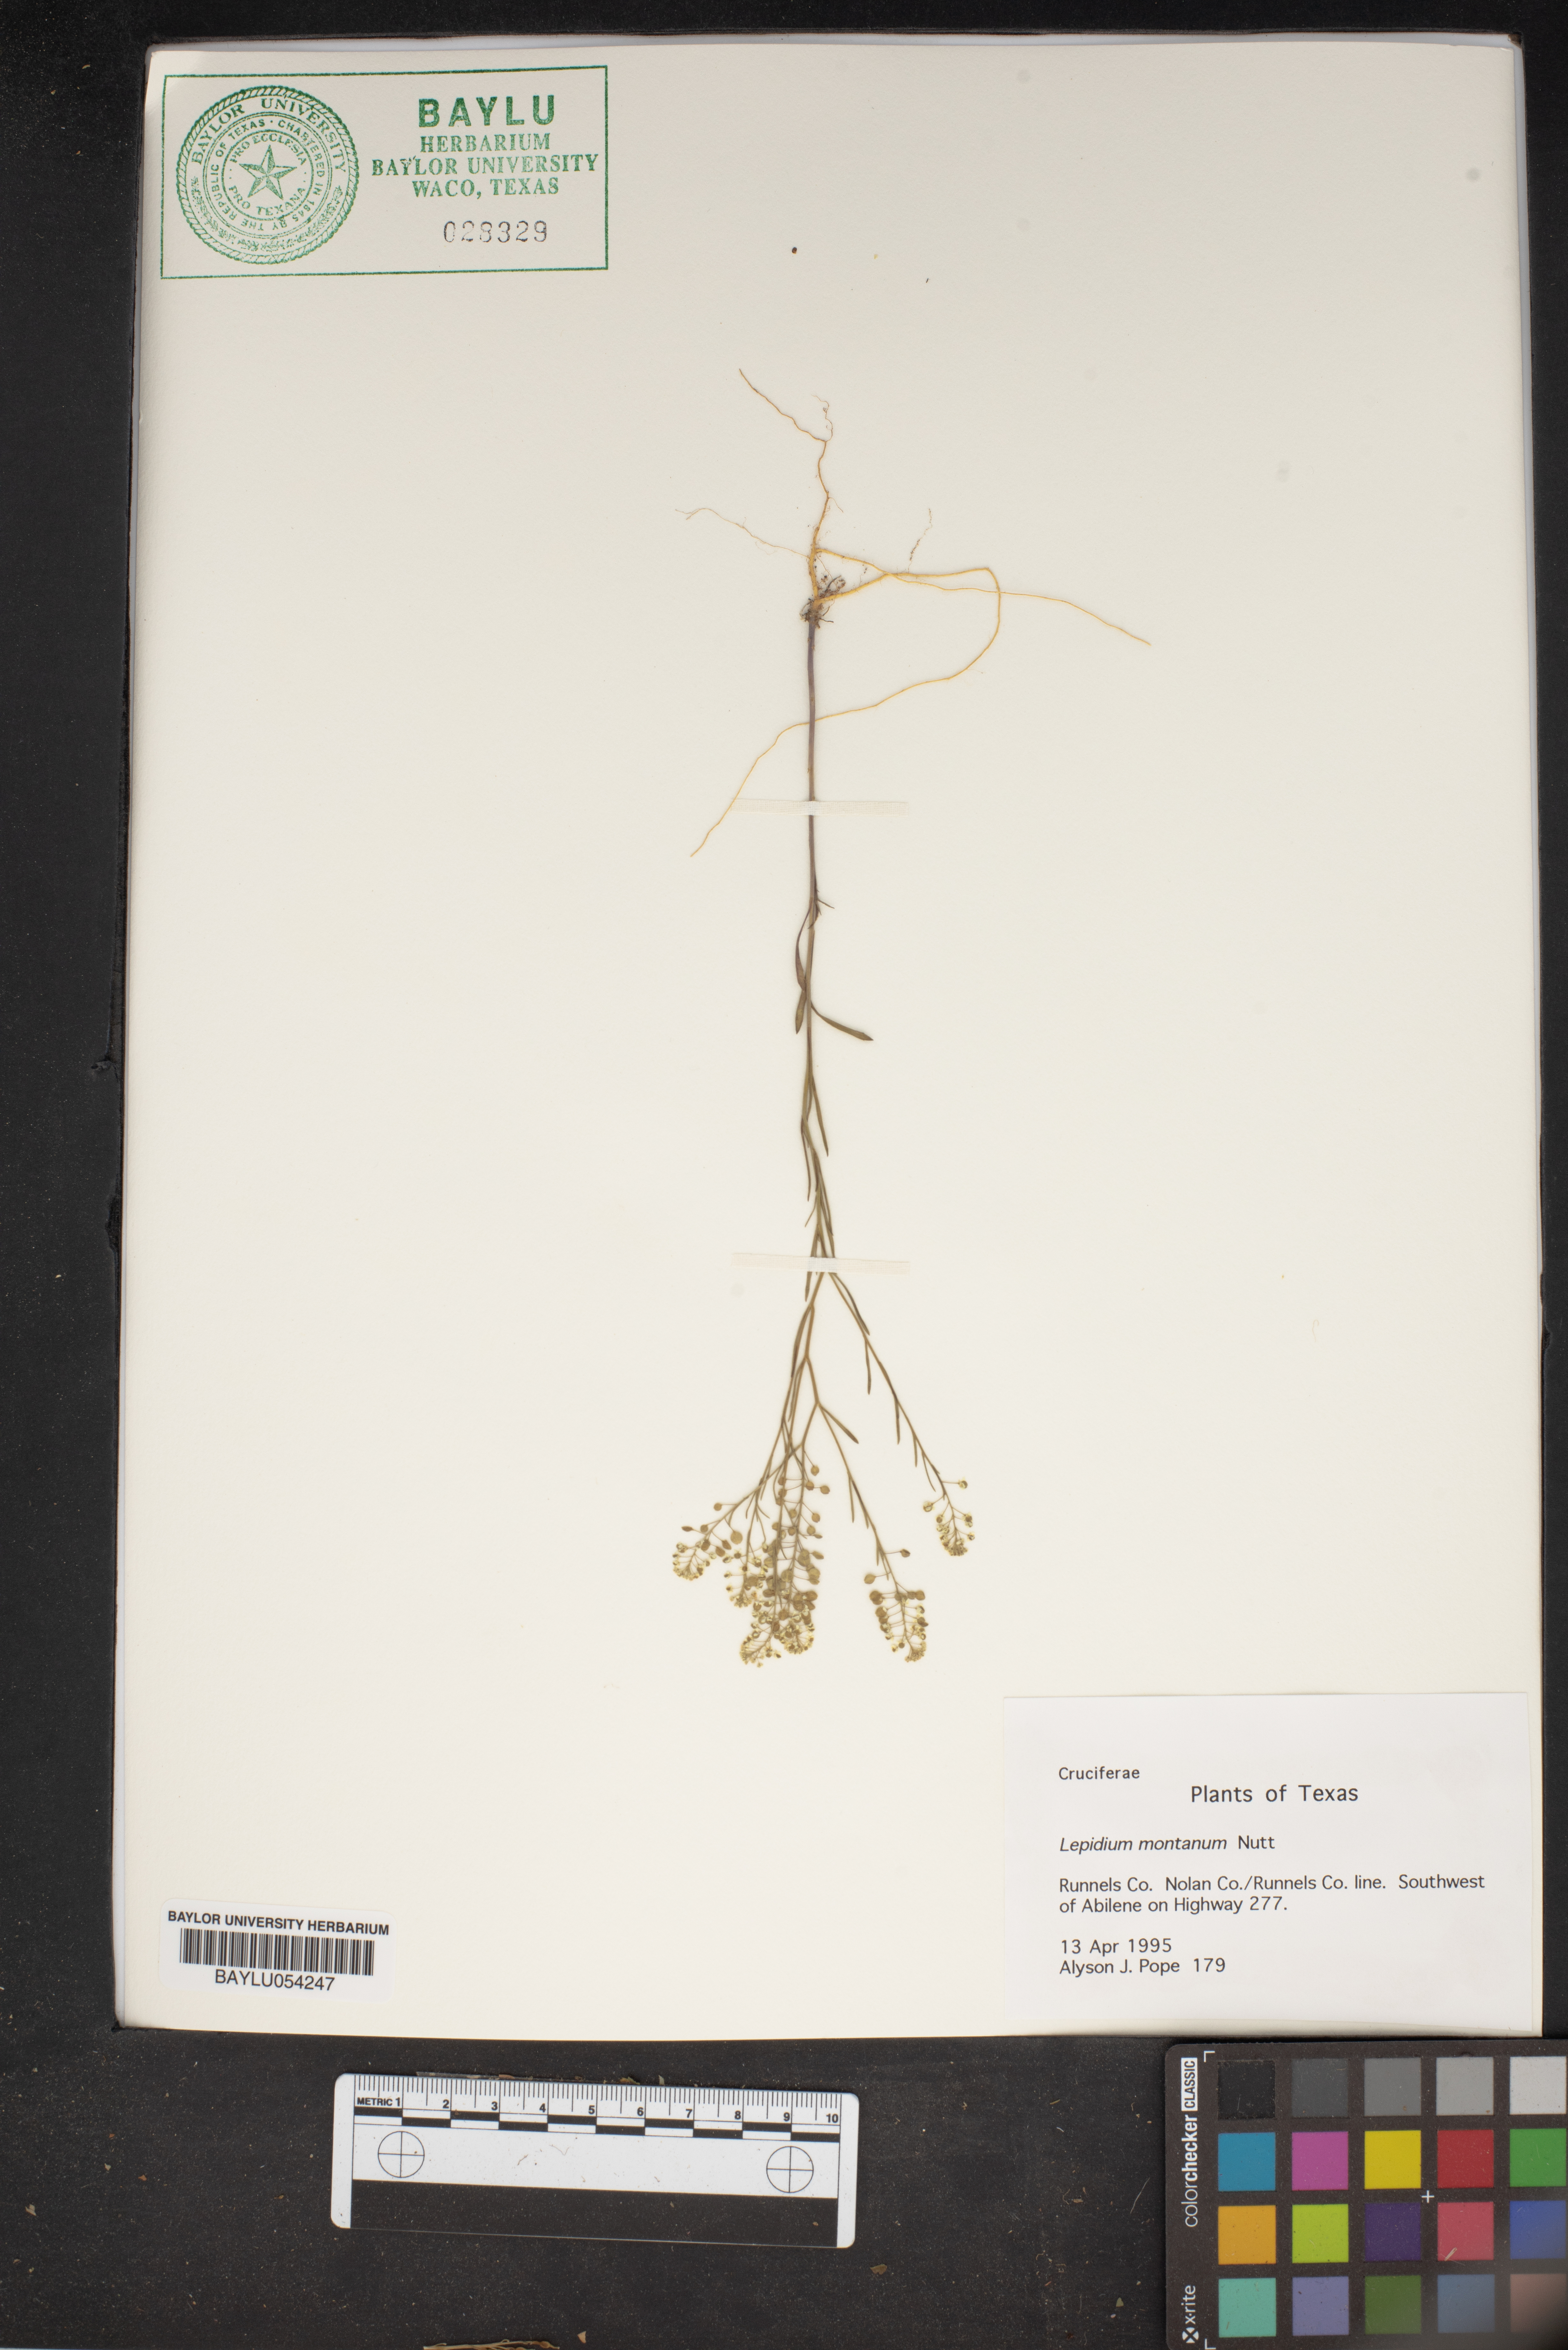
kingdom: Plantae
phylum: Tracheophyta
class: Magnoliopsida
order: Brassicales
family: Brassicaceae
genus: Lepidium
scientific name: Lepidium montanum
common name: Mountain pepperplant
